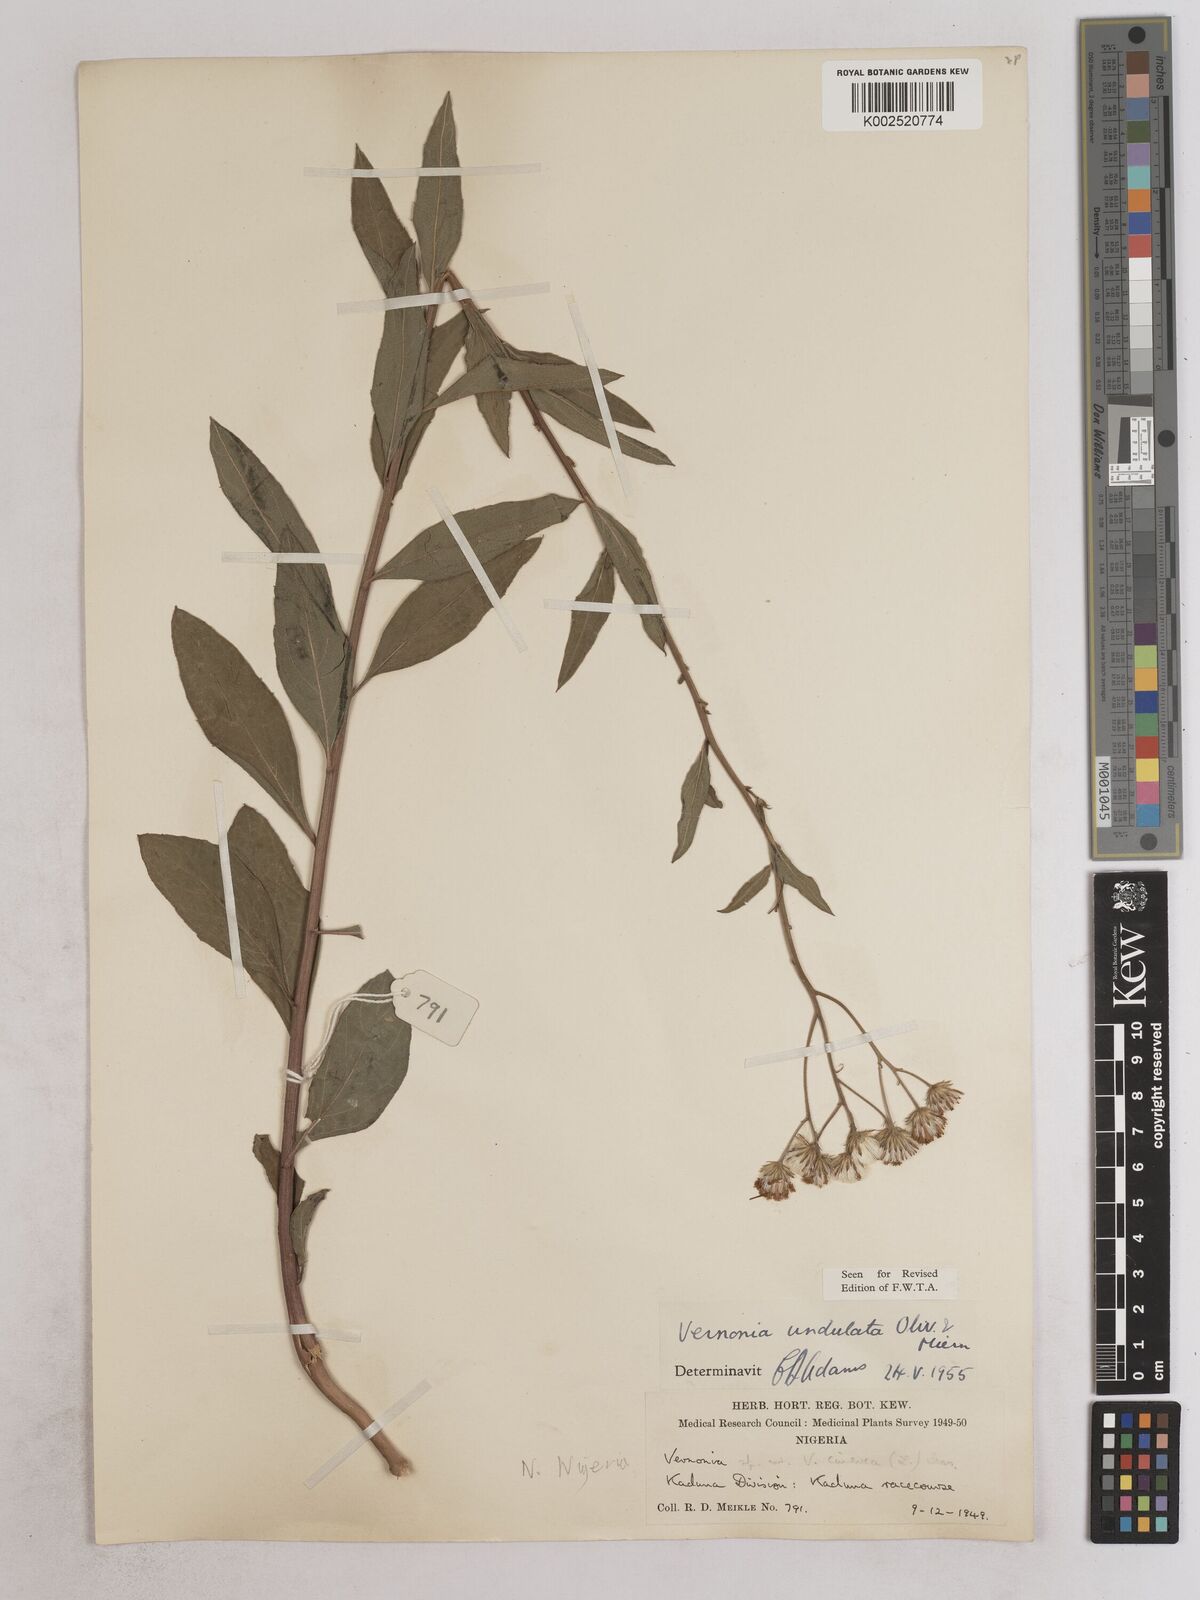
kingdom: Plantae
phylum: Tracheophyta
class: Magnoliopsida
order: Asterales
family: Asteraceae
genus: Vernonia
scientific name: Vernonia golungensis
